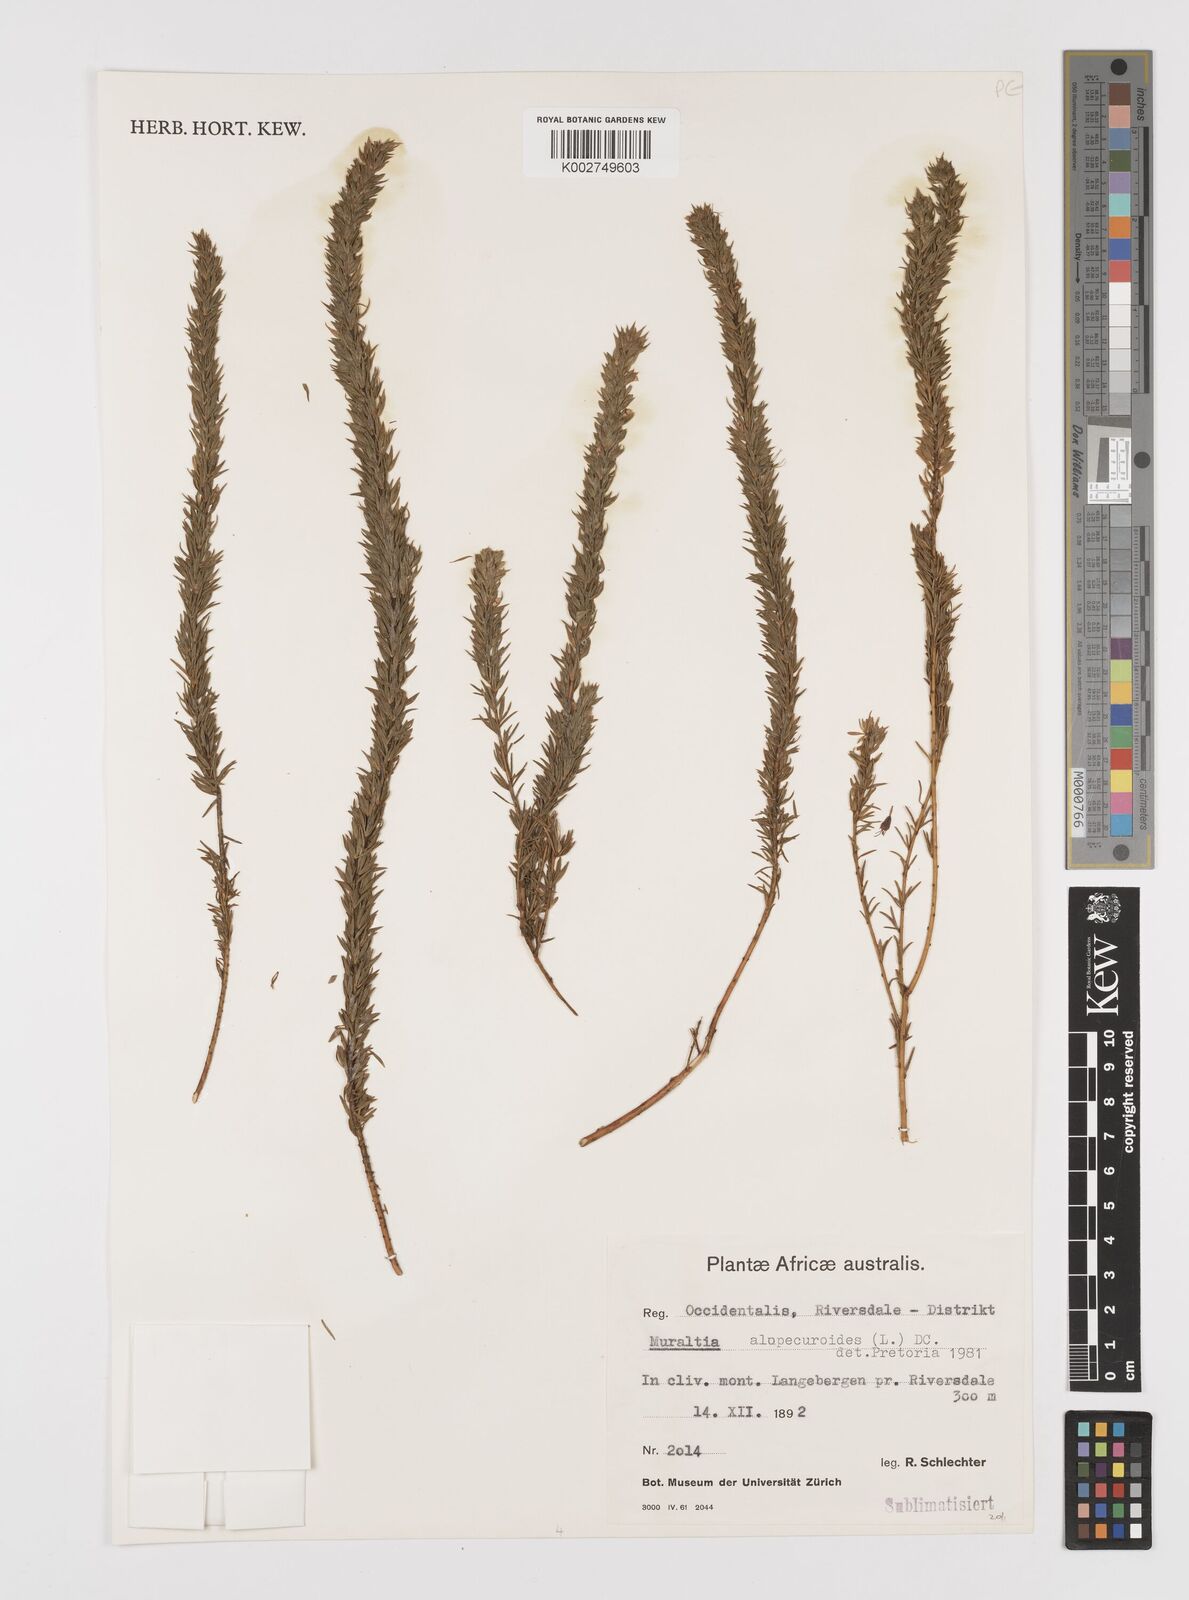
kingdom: Plantae
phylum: Tracheophyta
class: Magnoliopsida
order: Fabales
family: Polygalaceae
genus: Muraltia
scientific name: Muraltia alopecuroides
